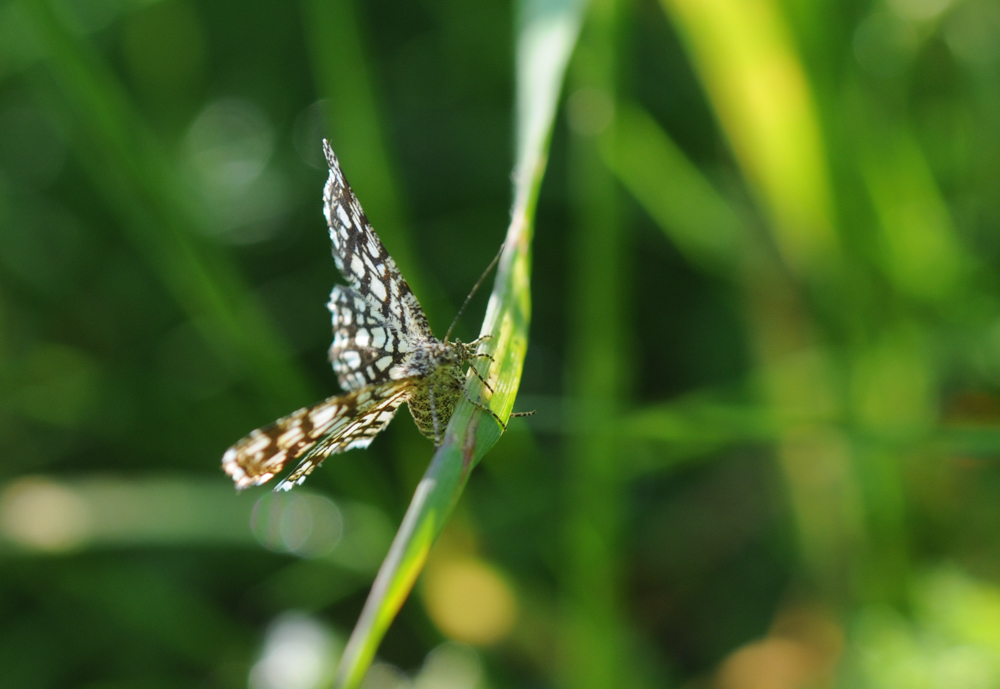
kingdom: Animalia
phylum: Arthropoda
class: Insecta
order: Lepidoptera
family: Geometridae
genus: Chiasmia
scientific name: Chiasmia clathrata
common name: Latticed heath
